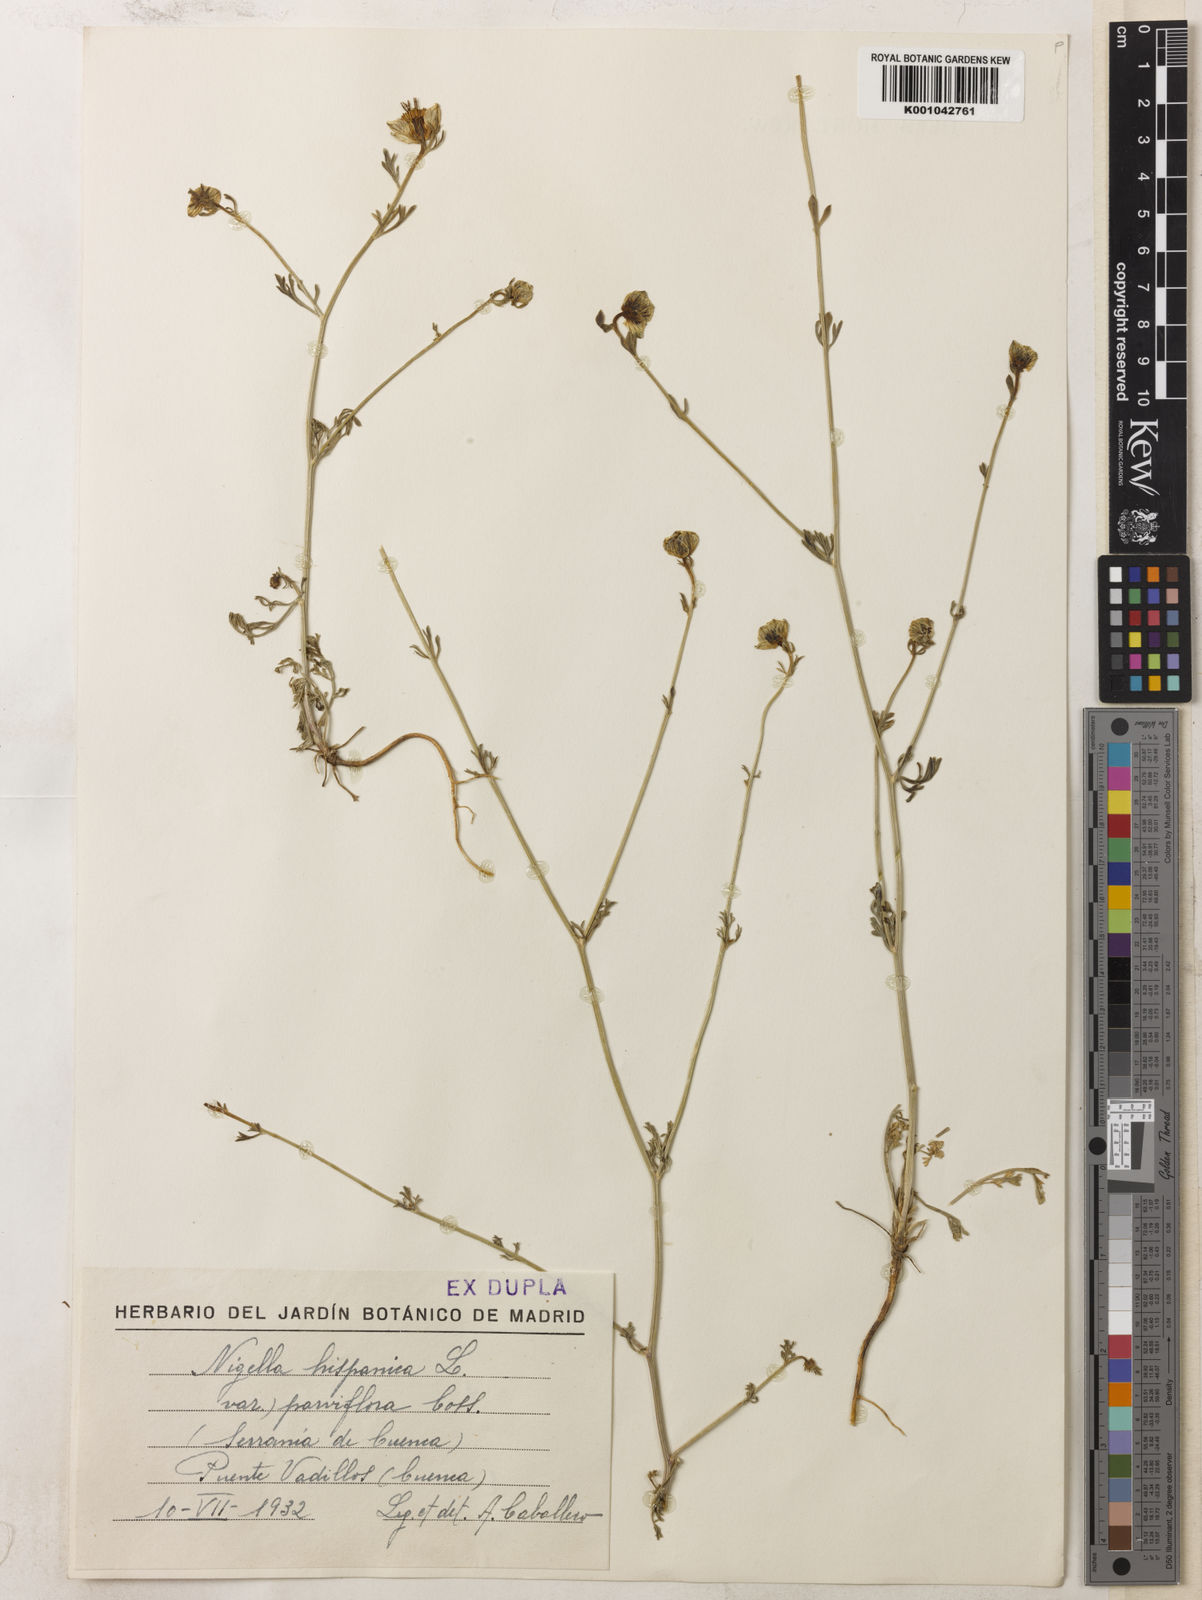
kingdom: Plantae
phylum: Tracheophyta
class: Magnoliopsida
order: Ranunculales
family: Ranunculaceae
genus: Nigella
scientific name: Nigella hispanica
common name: Fennel-flower
